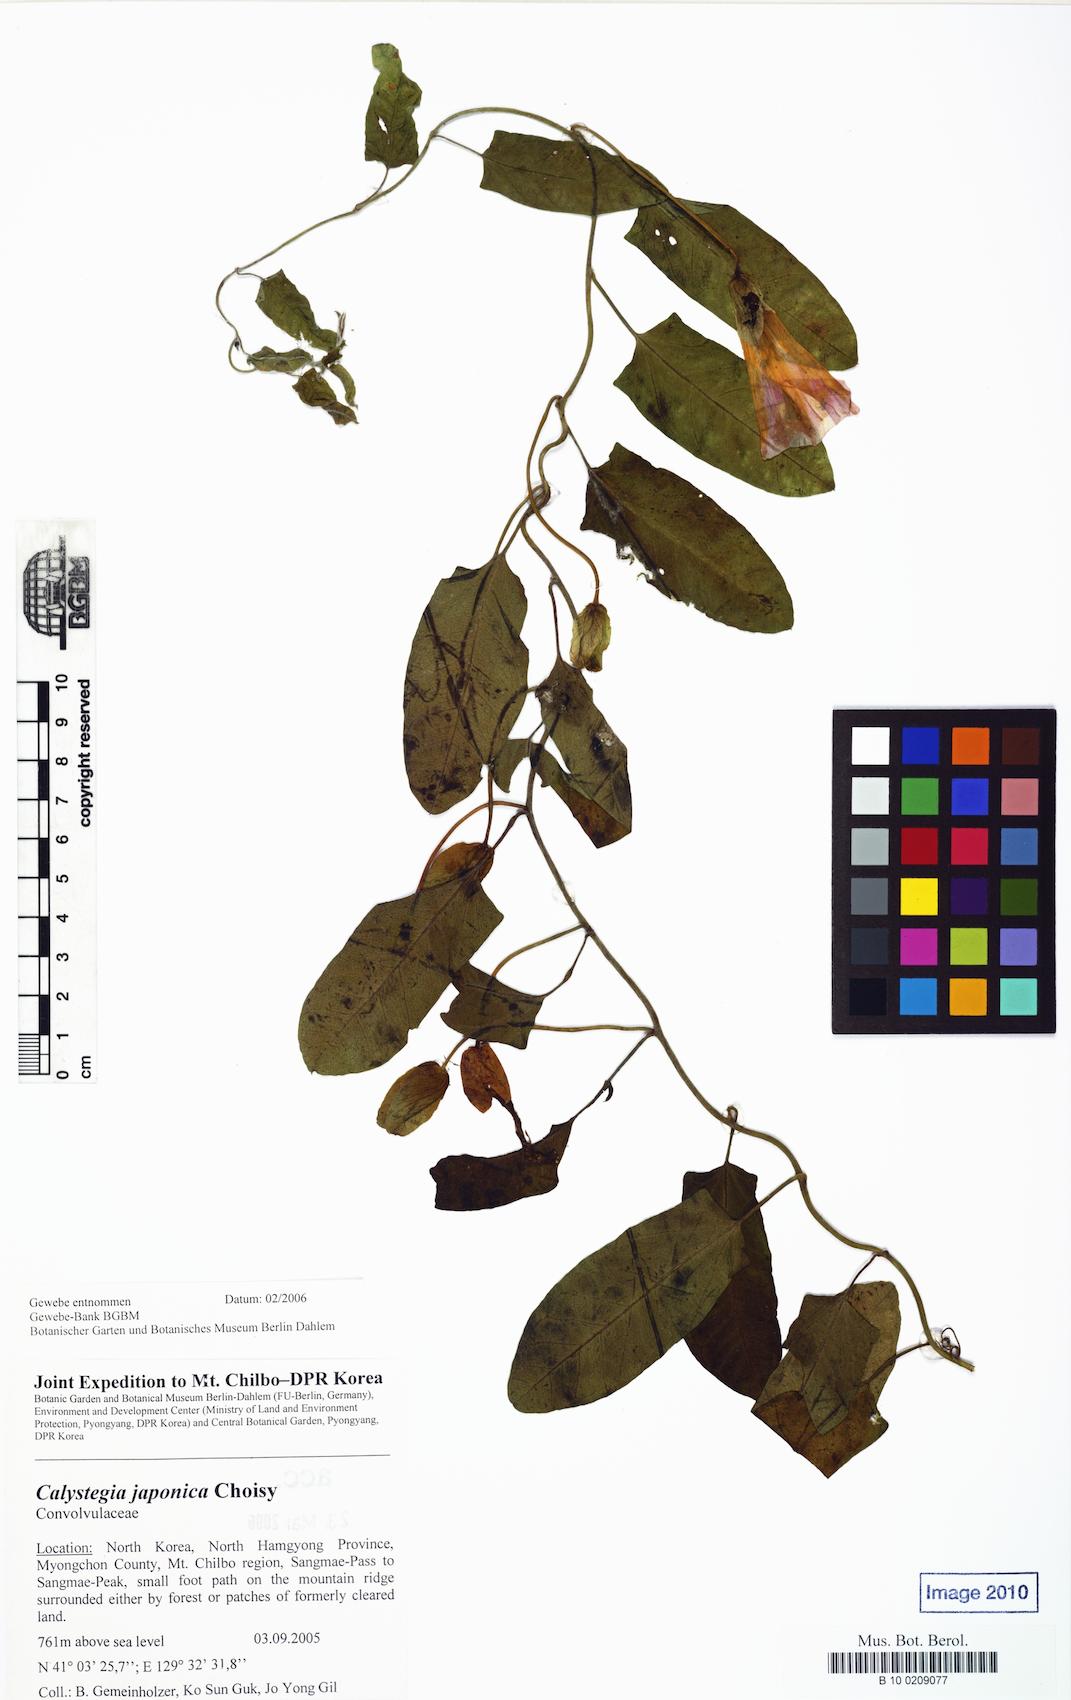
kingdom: Plantae
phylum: Tracheophyta
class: Magnoliopsida
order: Solanales
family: Convolvulaceae
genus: Calystegia
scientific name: Calystegia pubescens
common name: Japanese bindweed
